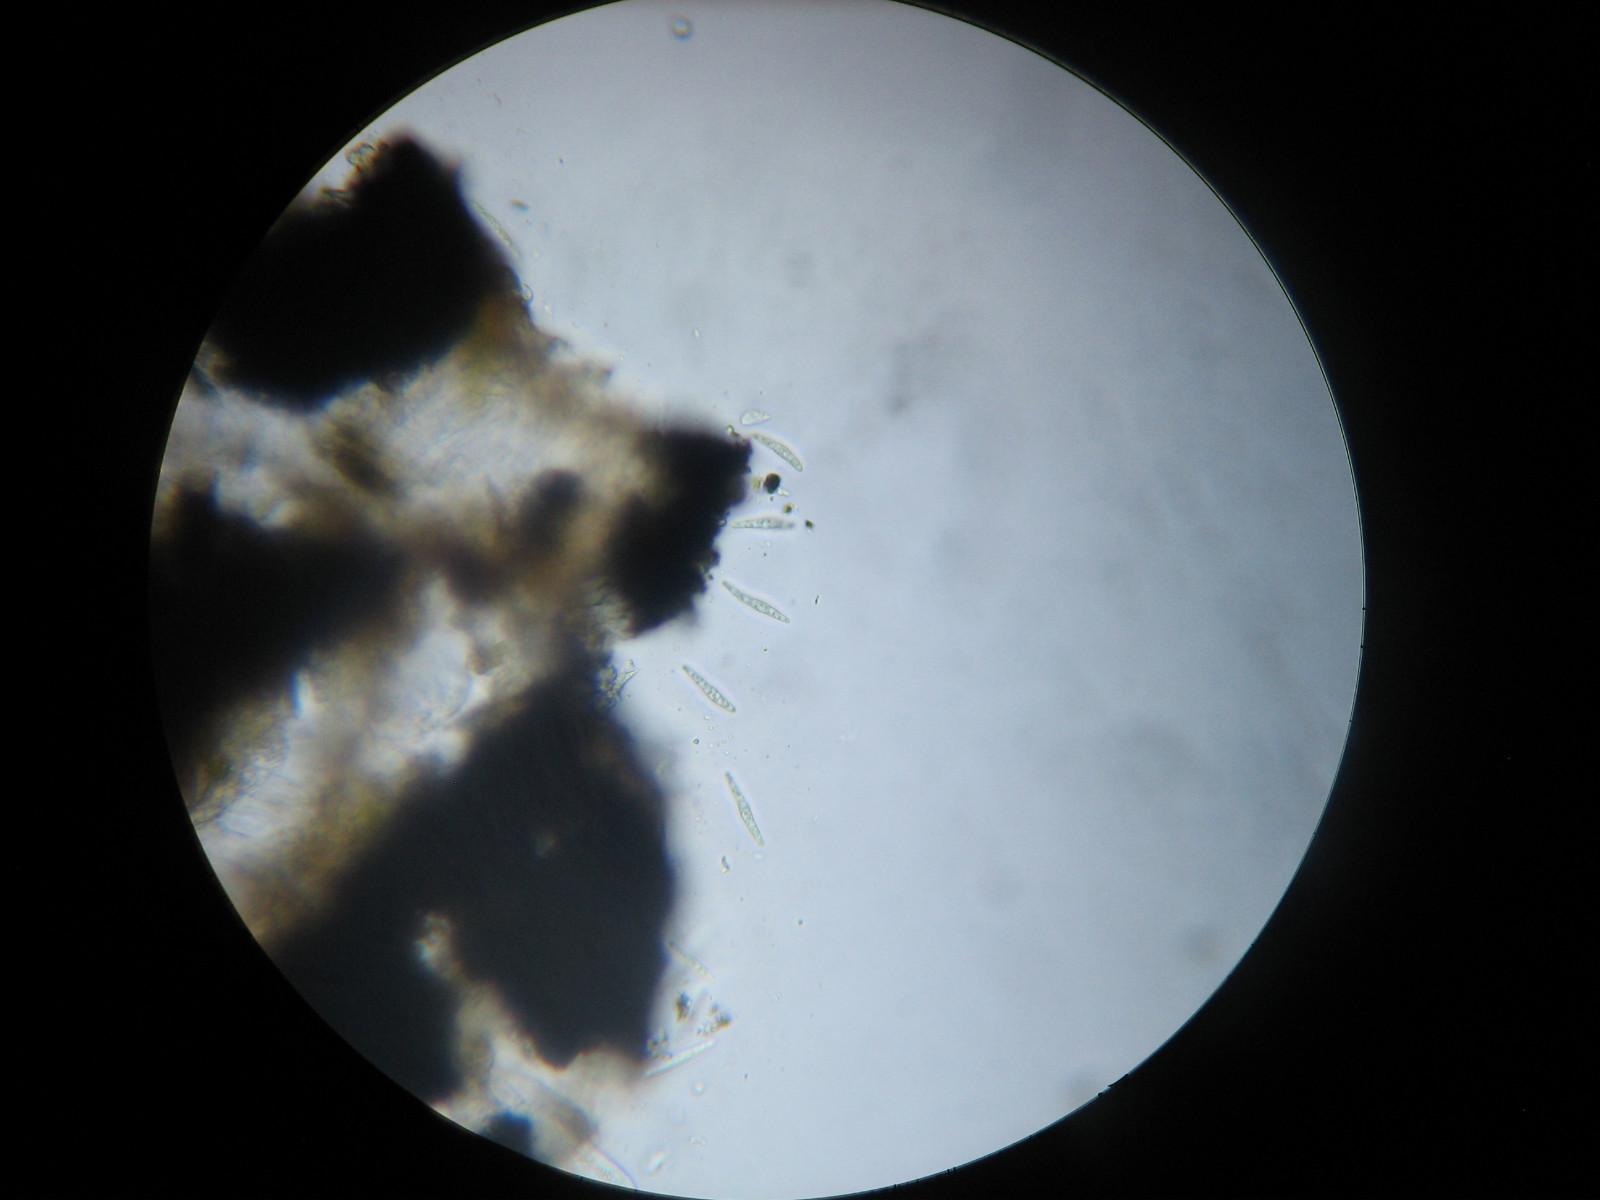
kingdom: Fungi
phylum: Ascomycota
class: Arthoniomycetes
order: Arthoniales
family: Opegraphaceae
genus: Opegrapha
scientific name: Opegrapha niveoatra
